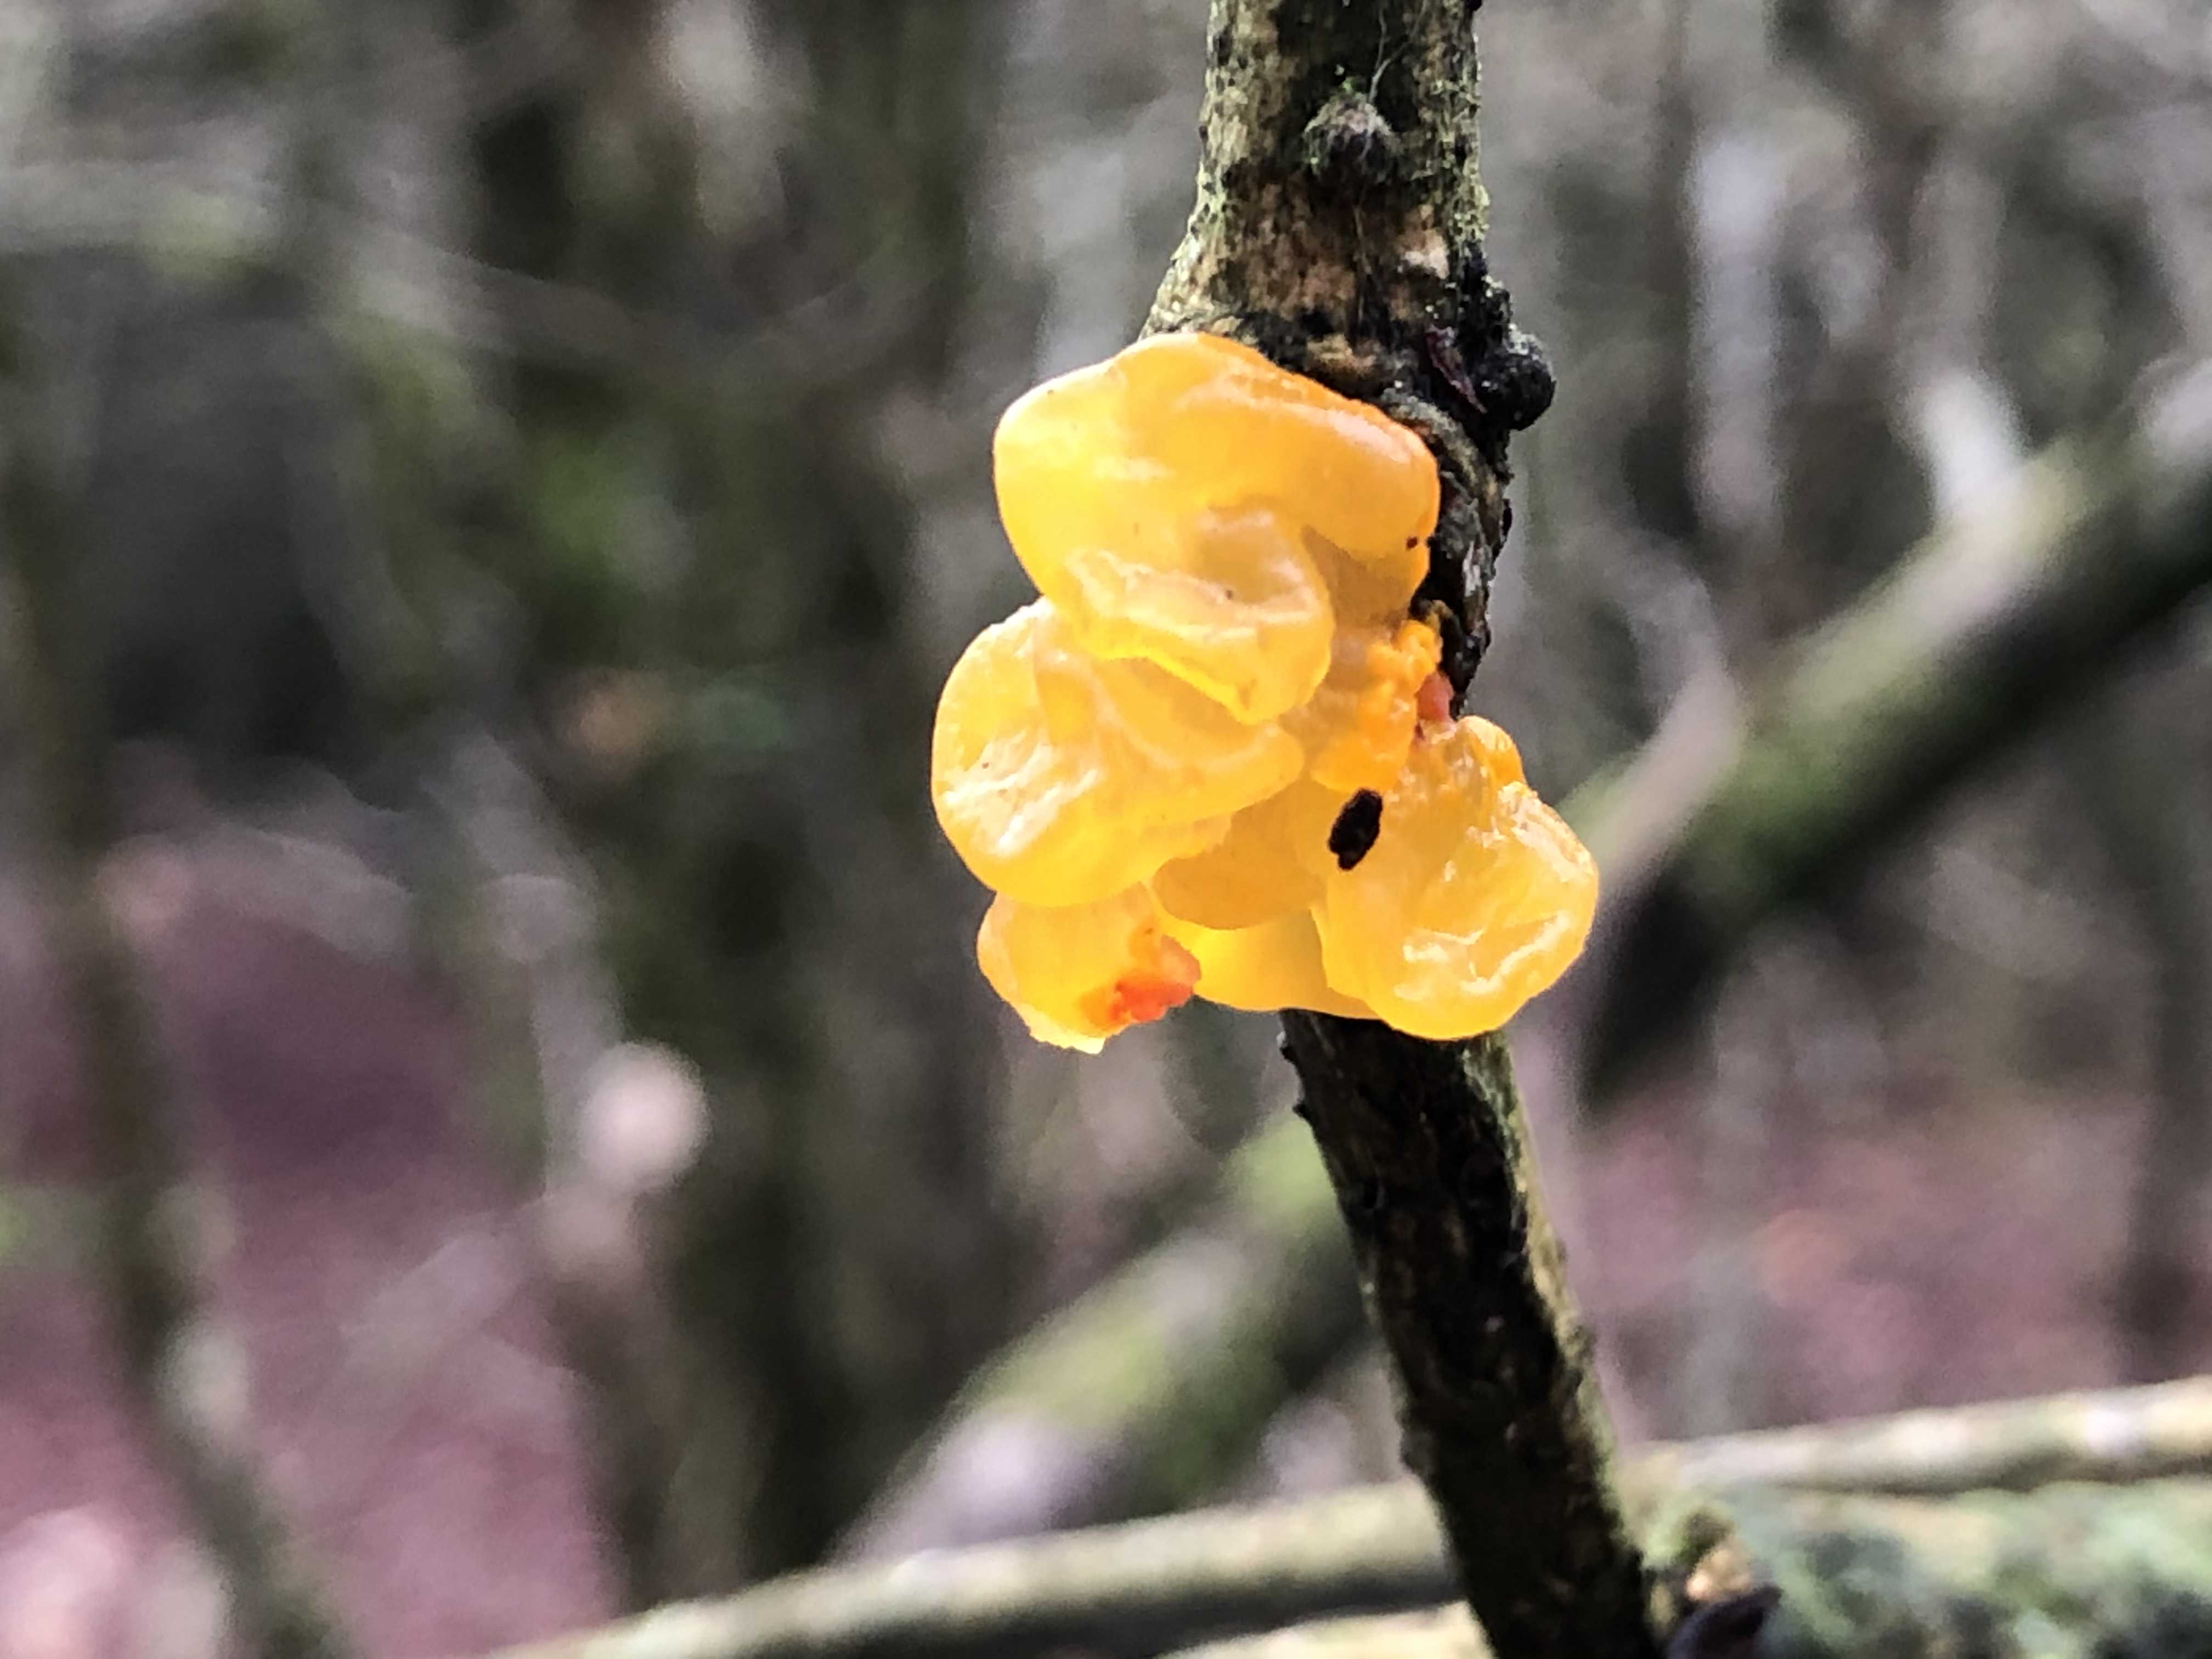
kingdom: Fungi
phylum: Basidiomycota
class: Tremellomycetes
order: Tremellales
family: Tremellaceae
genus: Tremella
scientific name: Tremella mesenterica
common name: gul bævresvamp
